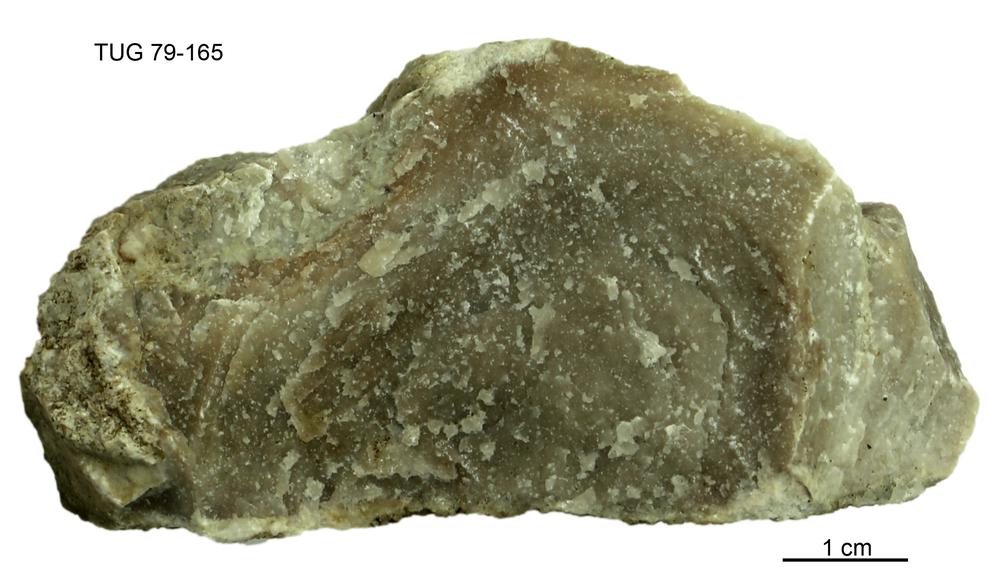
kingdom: Animalia
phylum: Porifera
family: Stromatoporidae
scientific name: Stromatoporidae
